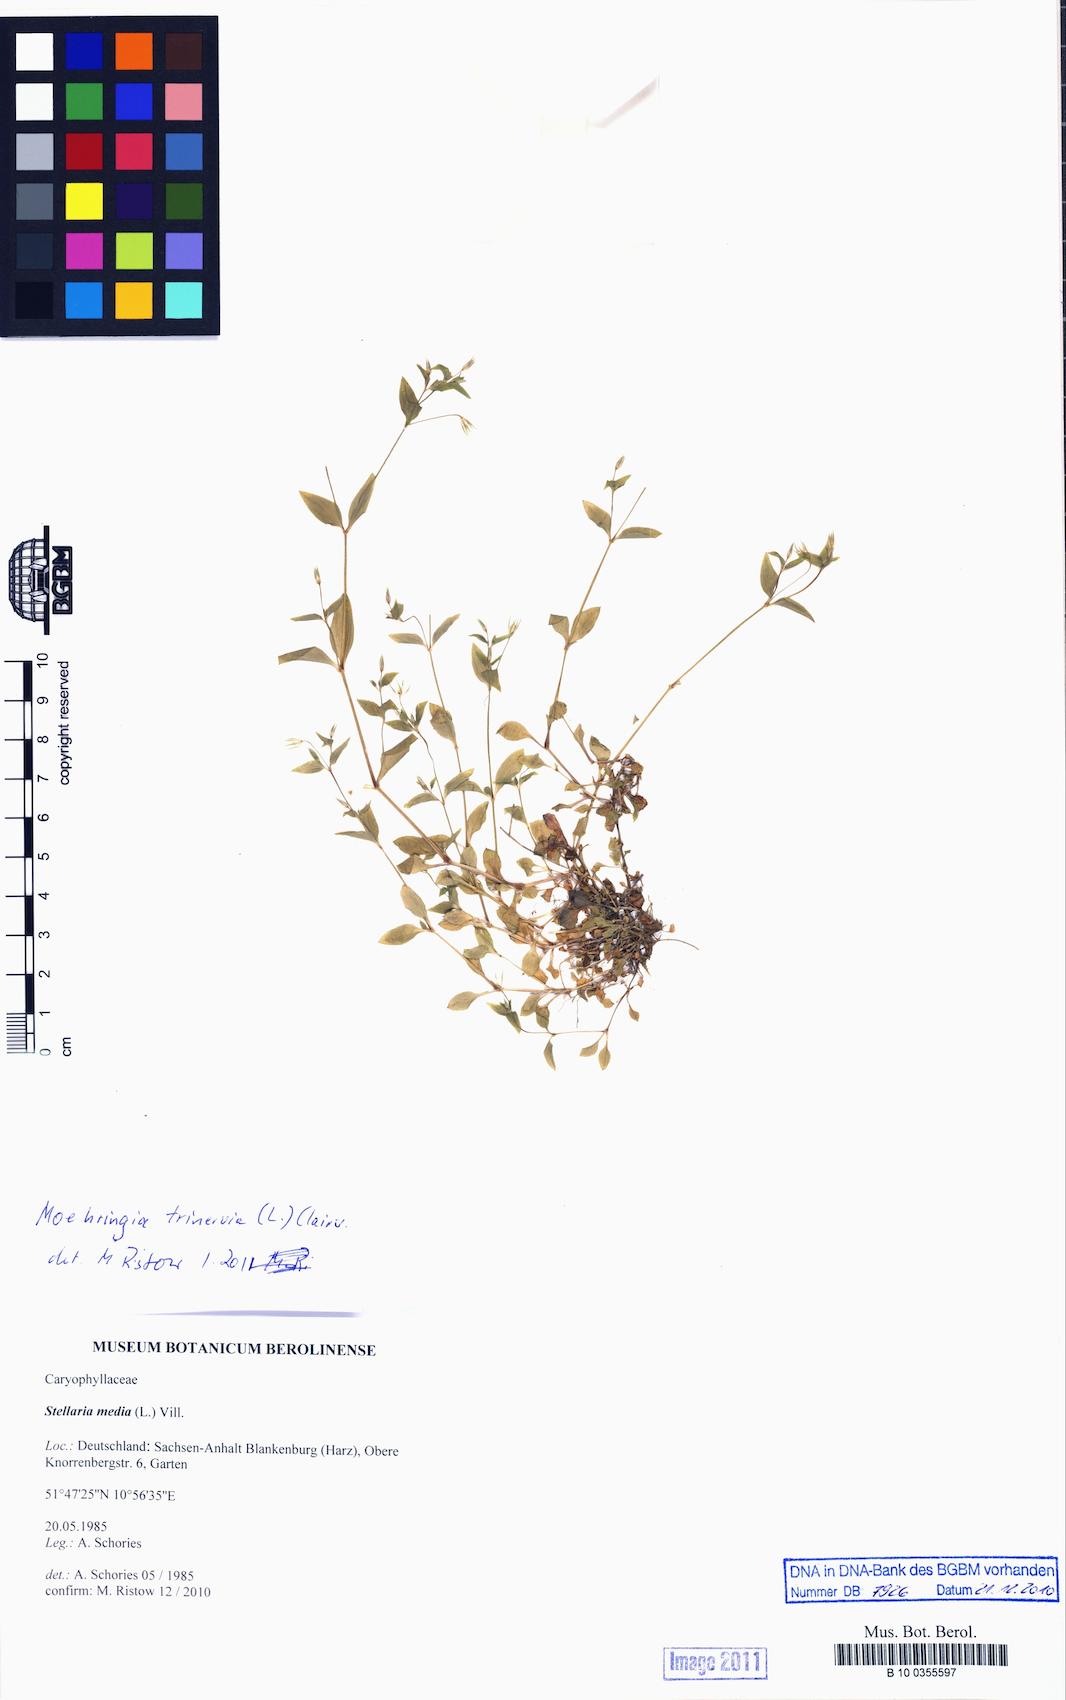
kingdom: Plantae
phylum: Tracheophyta
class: Magnoliopsida
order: Caryophyllales
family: Caryophyllaceae
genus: Stellaria
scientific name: Stellaria media
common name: Common chickweed
